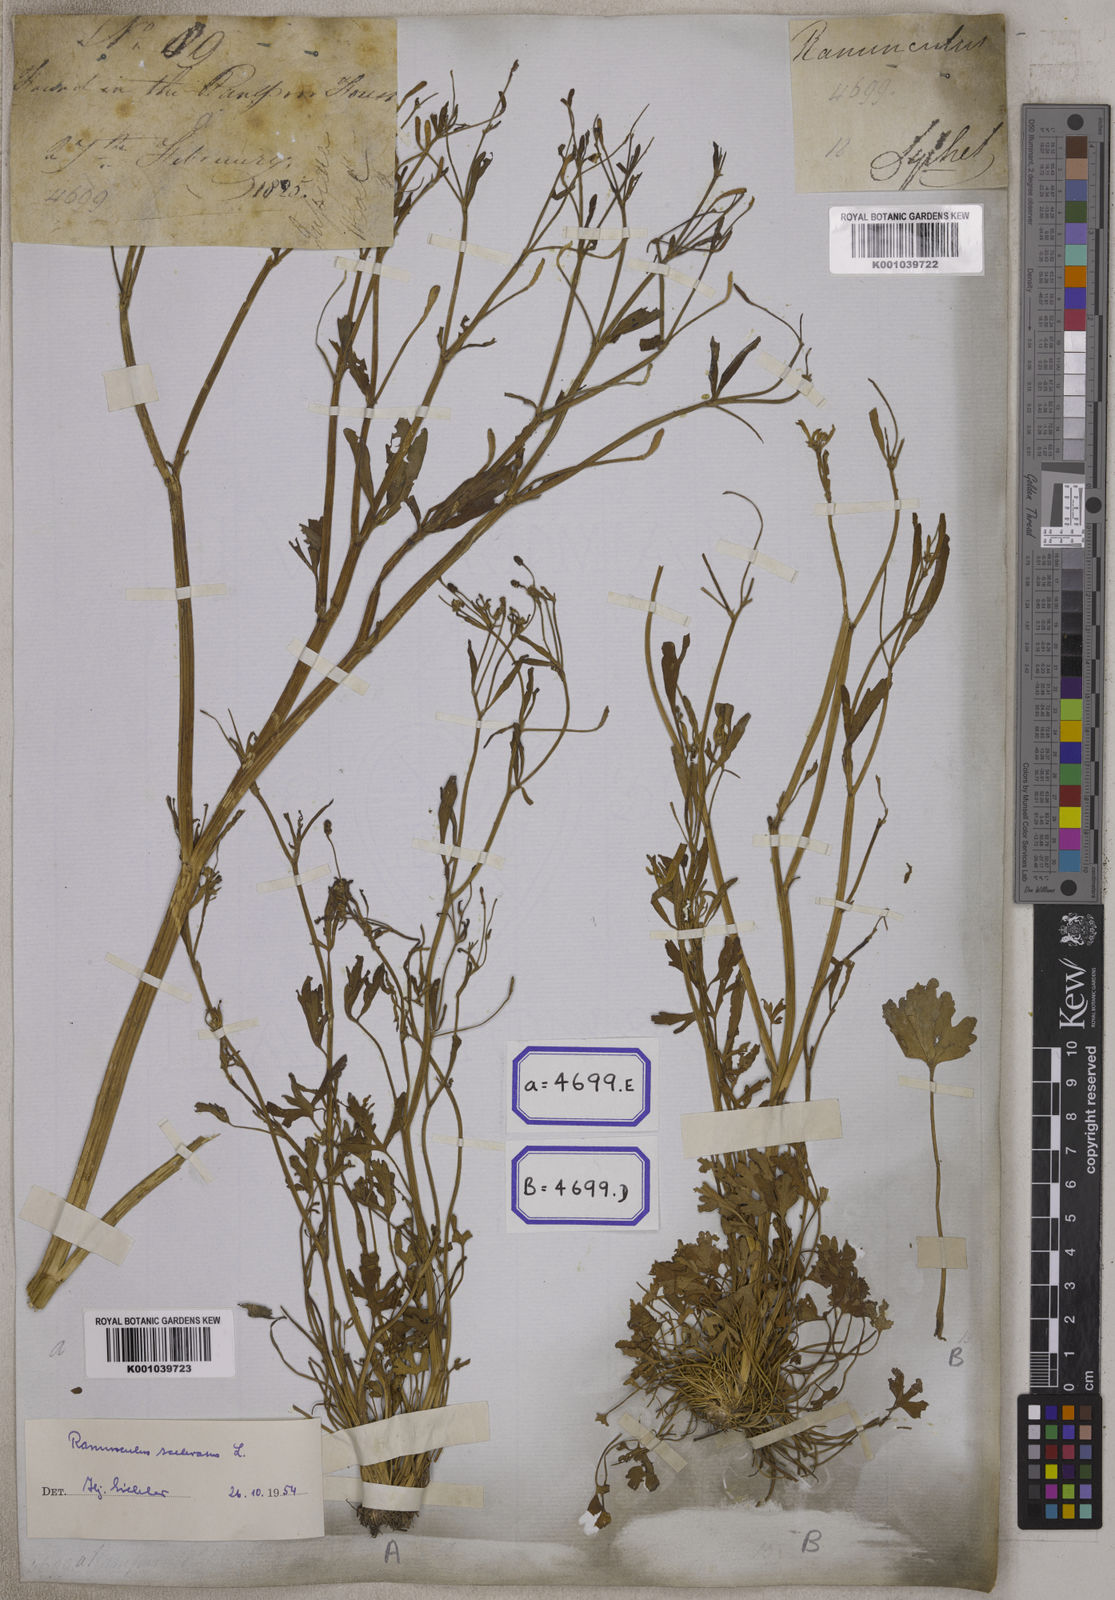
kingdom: Plantae
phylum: Tracheophyta
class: Magnoliopsida
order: Ranunculales
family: Ranunculaceae
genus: Ranunculus
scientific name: Ranunculus sceleratus
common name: Celery-leaved buttercup
